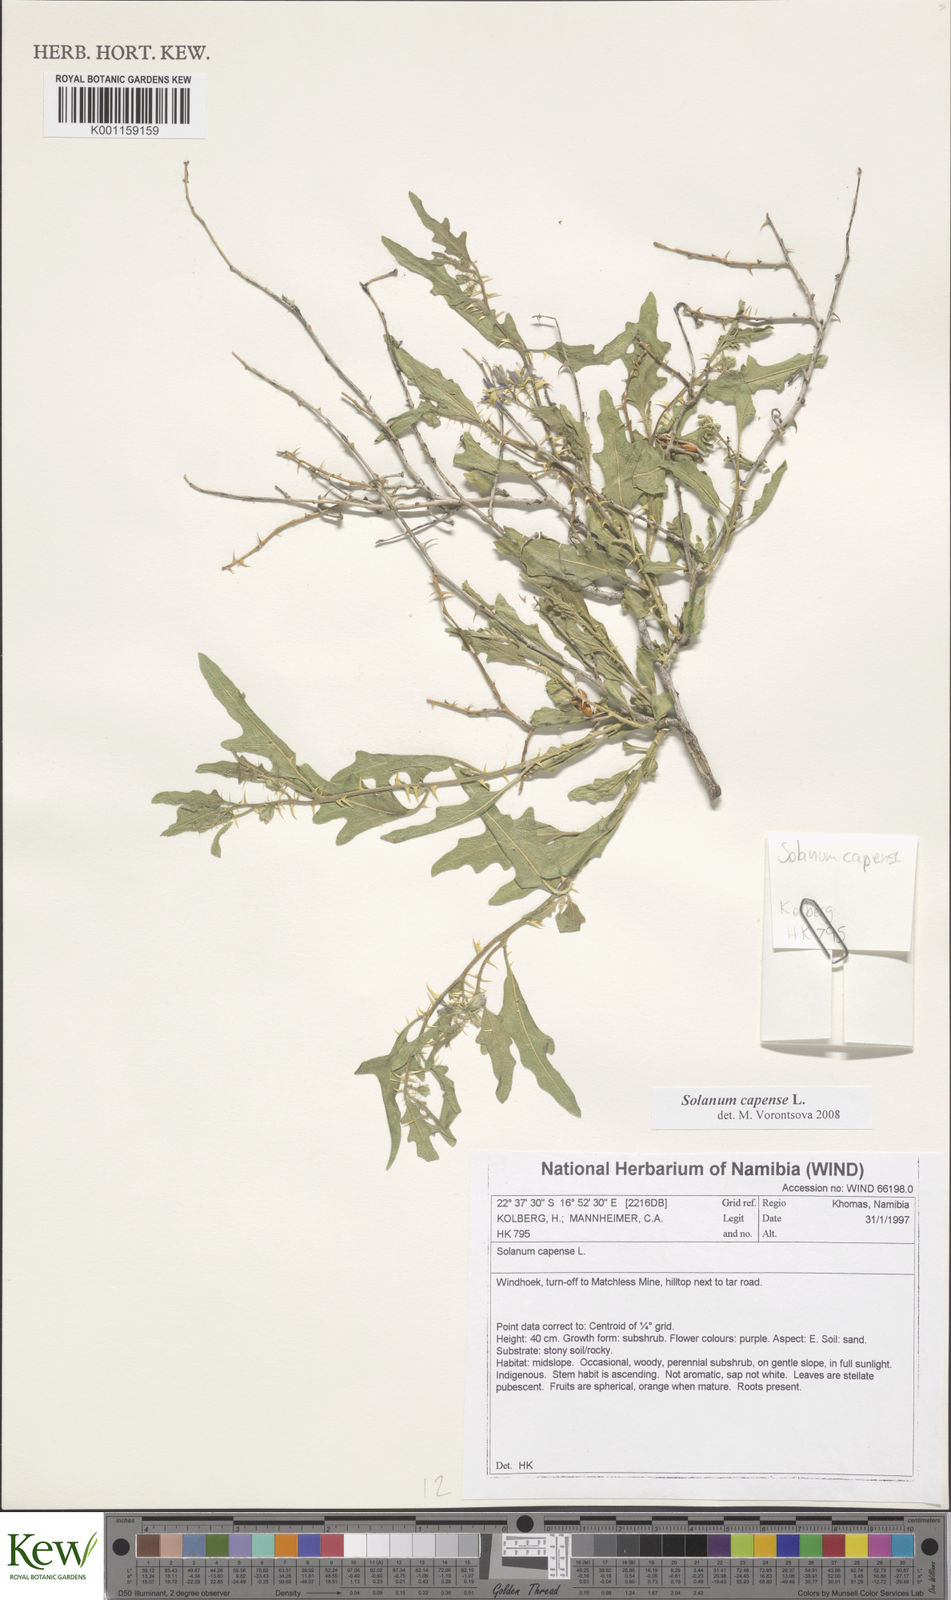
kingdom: Plantae
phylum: Tracheophyta
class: Magnoliopsida
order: Solanales
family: Solanaceae
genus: Solanum
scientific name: Solanum capense
